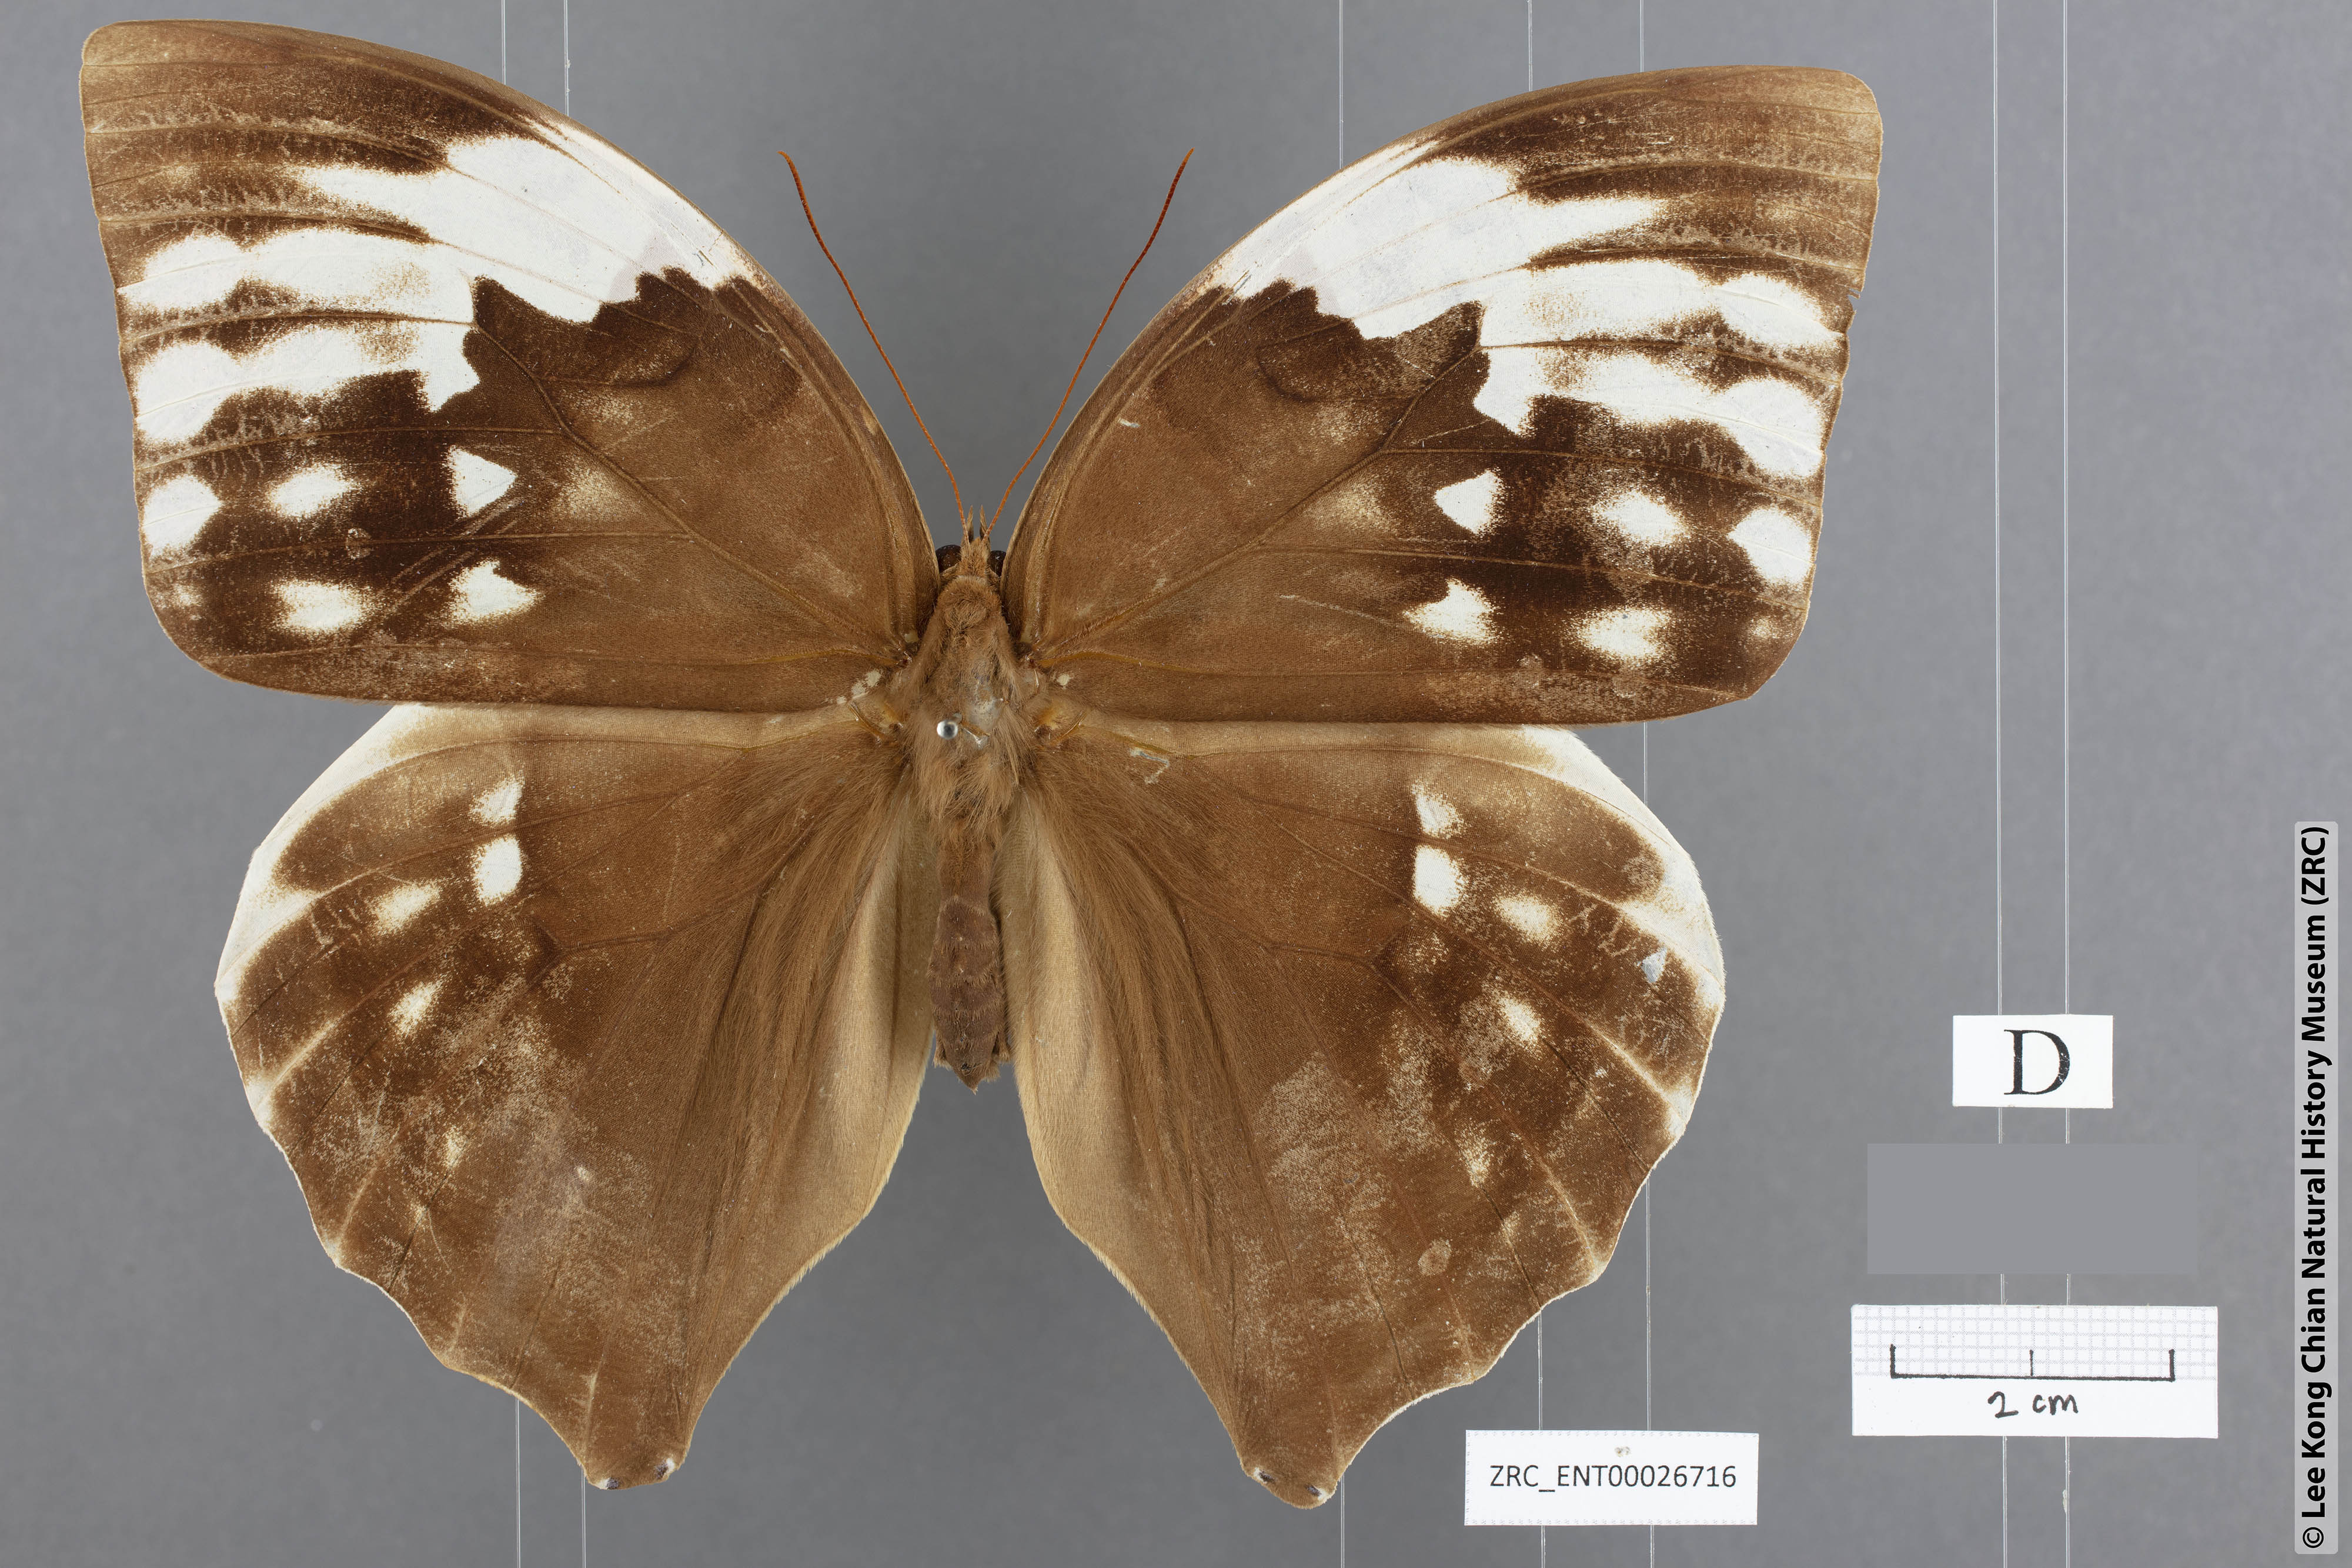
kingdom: Animalia
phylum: Arthropoda
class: Insecta
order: Lepidoptera
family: Nymphalidae
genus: Zeuxidia
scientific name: Zeuxidia aurelia
